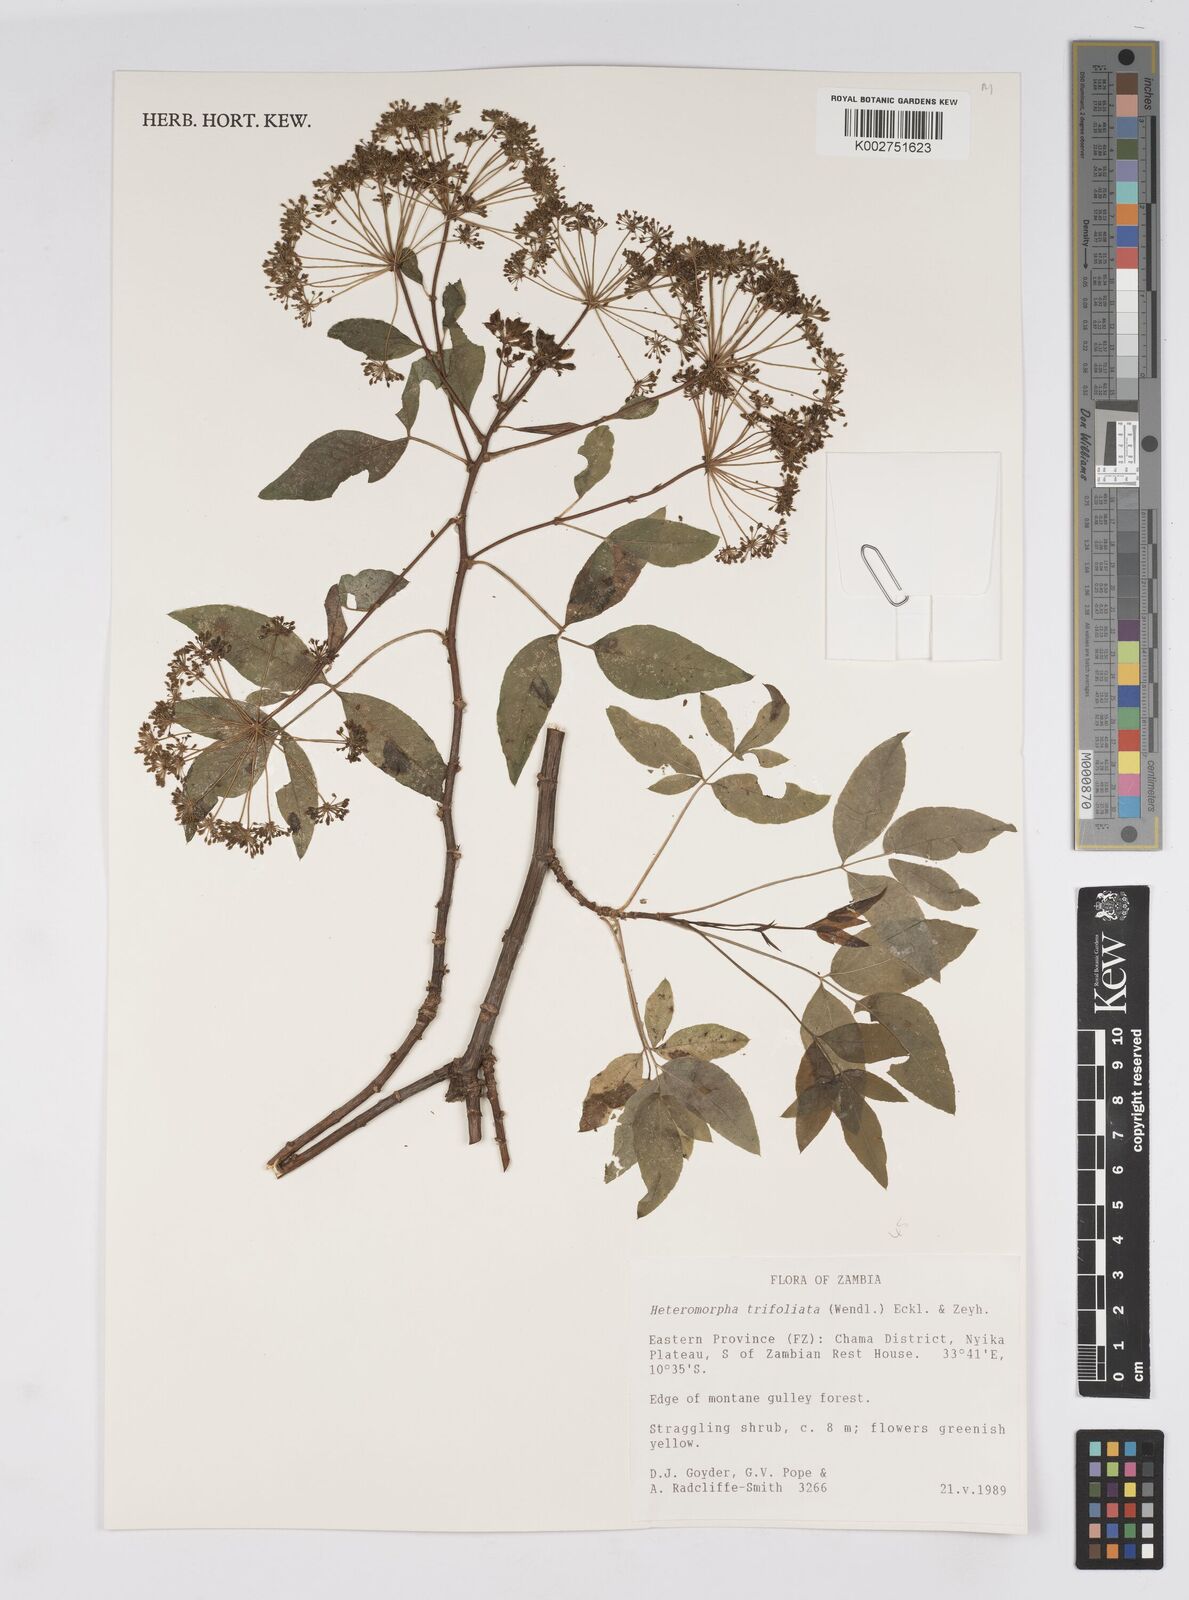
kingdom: Plantae
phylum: Tracheophyta
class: Magnoliopsida
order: Apiales
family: Apiaceae
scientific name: Apiaceae
